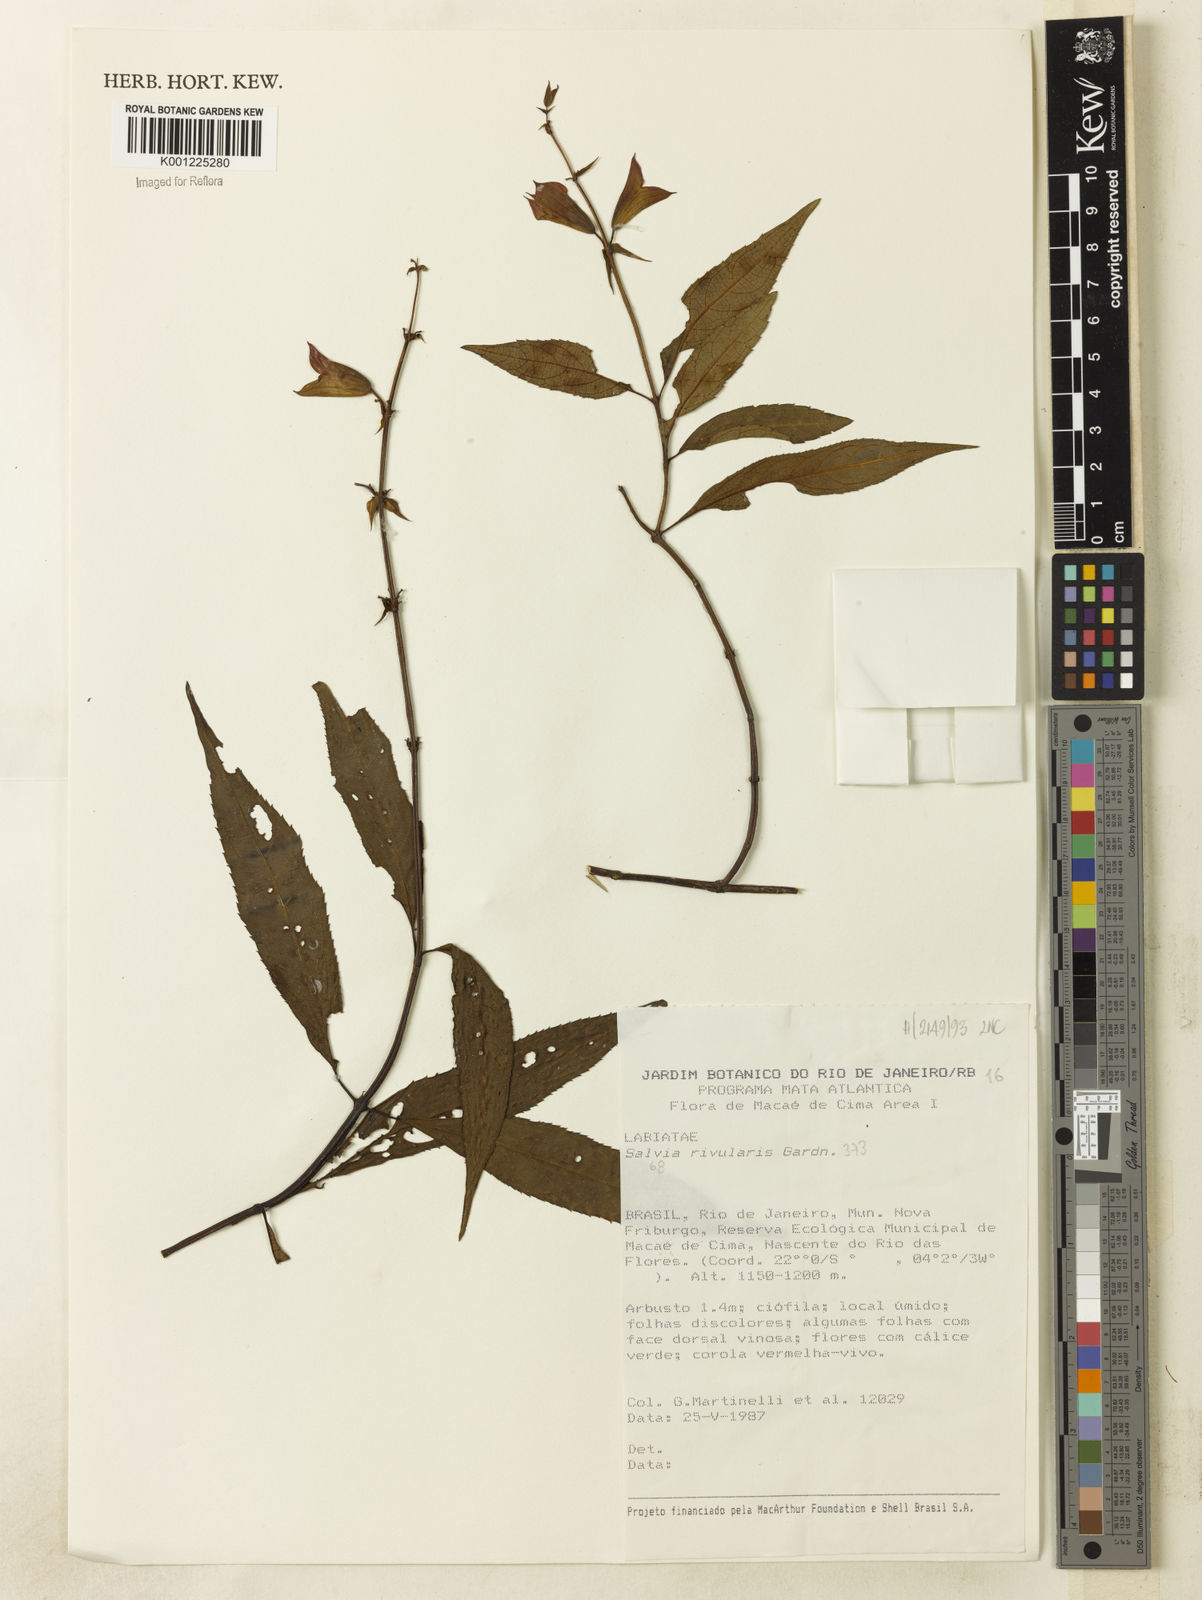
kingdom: Plantae
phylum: Tracheophyta
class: Magnoliopsida
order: Lamiales
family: Lamiaceae
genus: Salvia
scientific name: Salvia rivularis
